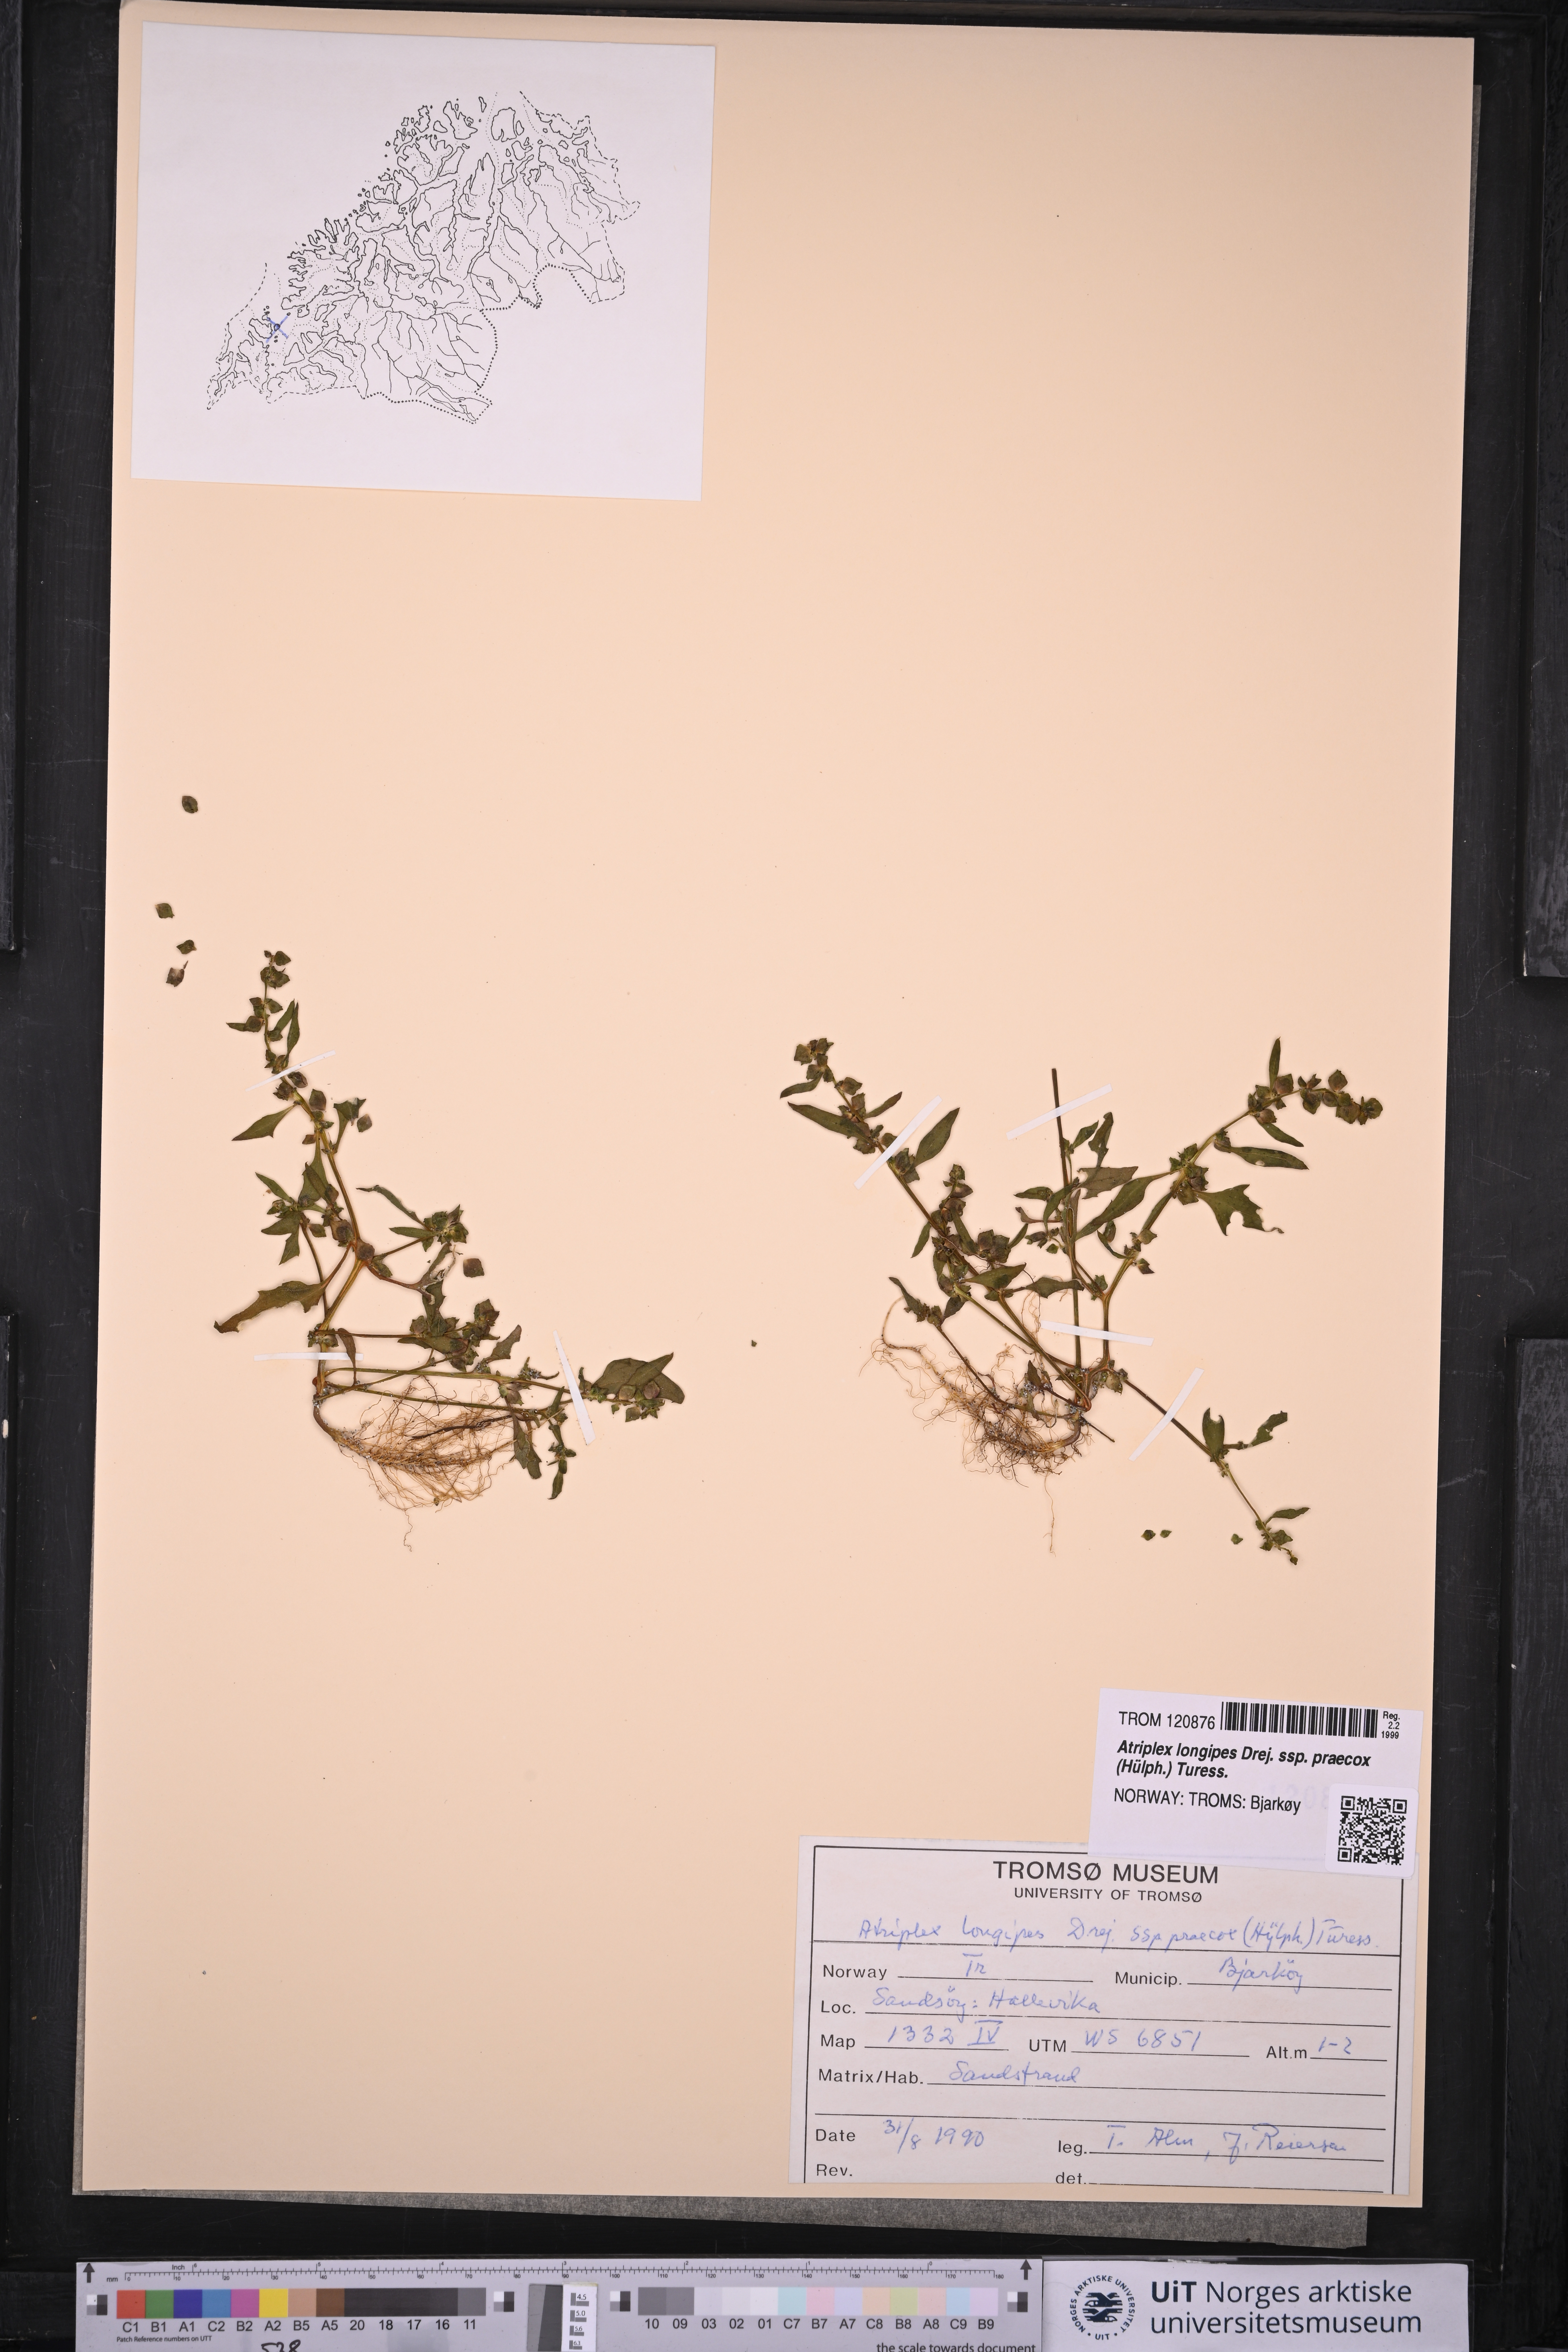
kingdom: Plantae
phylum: Tracheophyta
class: Magnoliopsida
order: Caryophyllales
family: Amaranthaceae
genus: Atriplex
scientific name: Atriplex praecox
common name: Early orache
